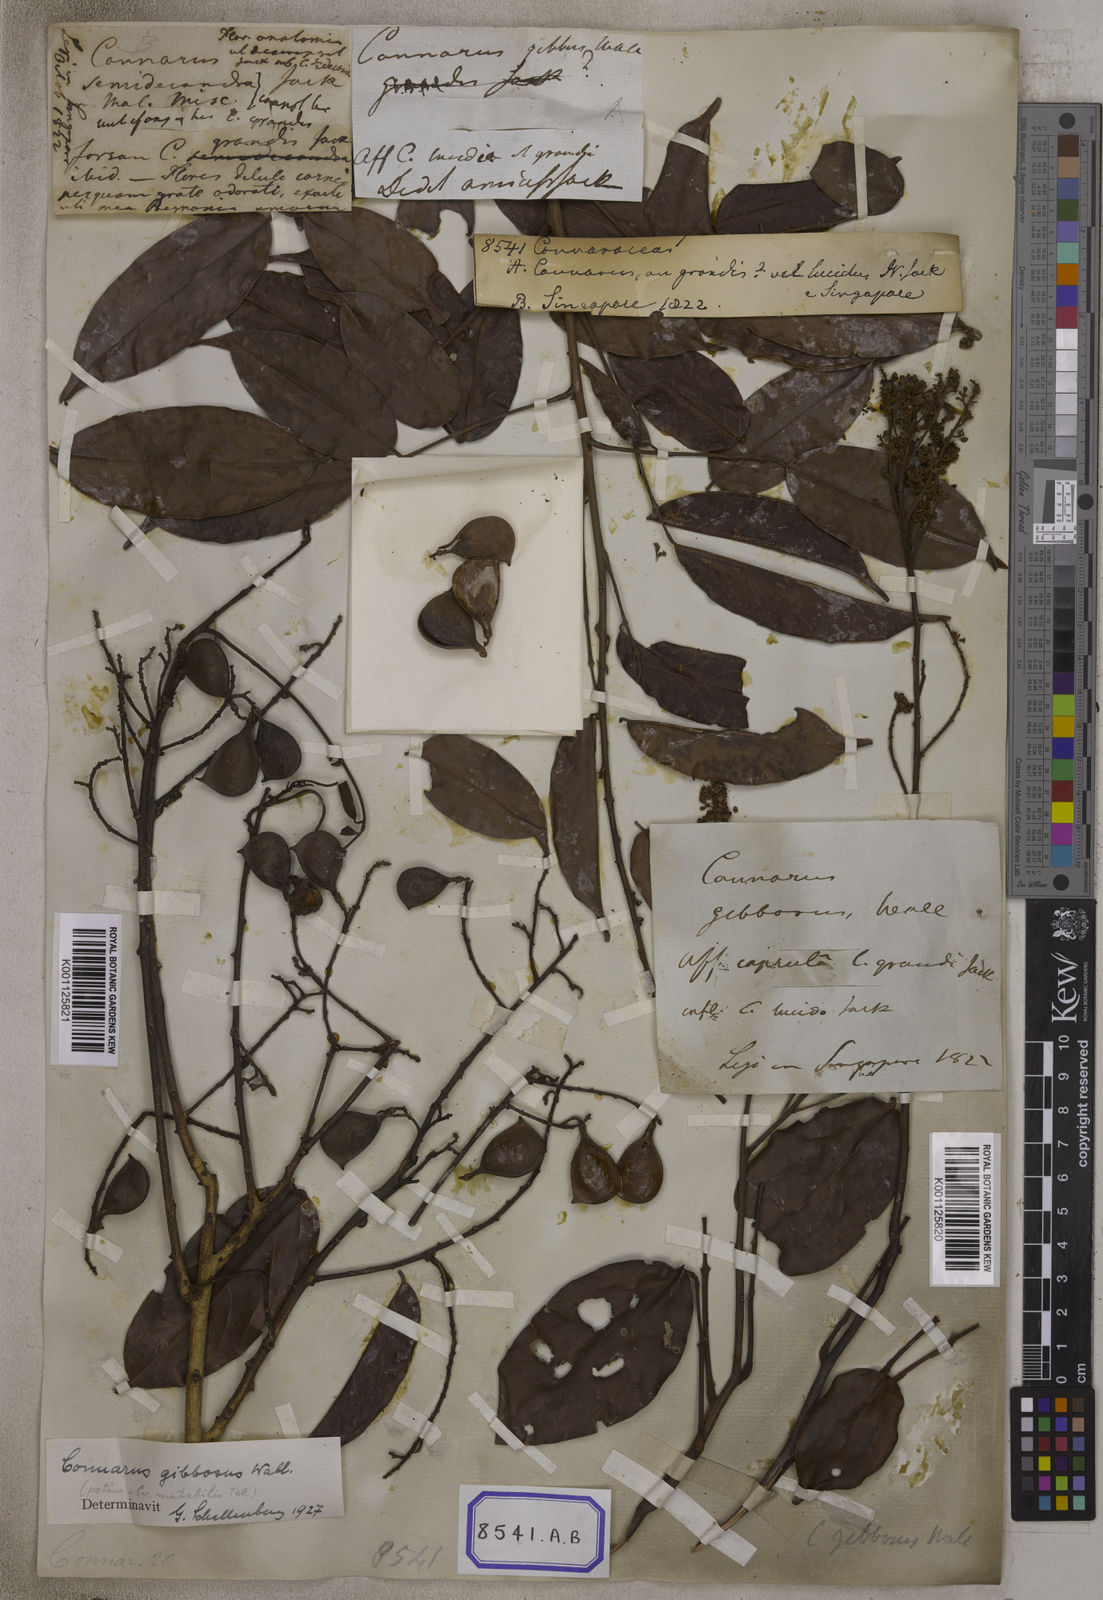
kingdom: Plantae
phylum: Tracheophyta
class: Magnoliopsida
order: Oxalidales
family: Connaraceae
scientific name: Connaraceae
